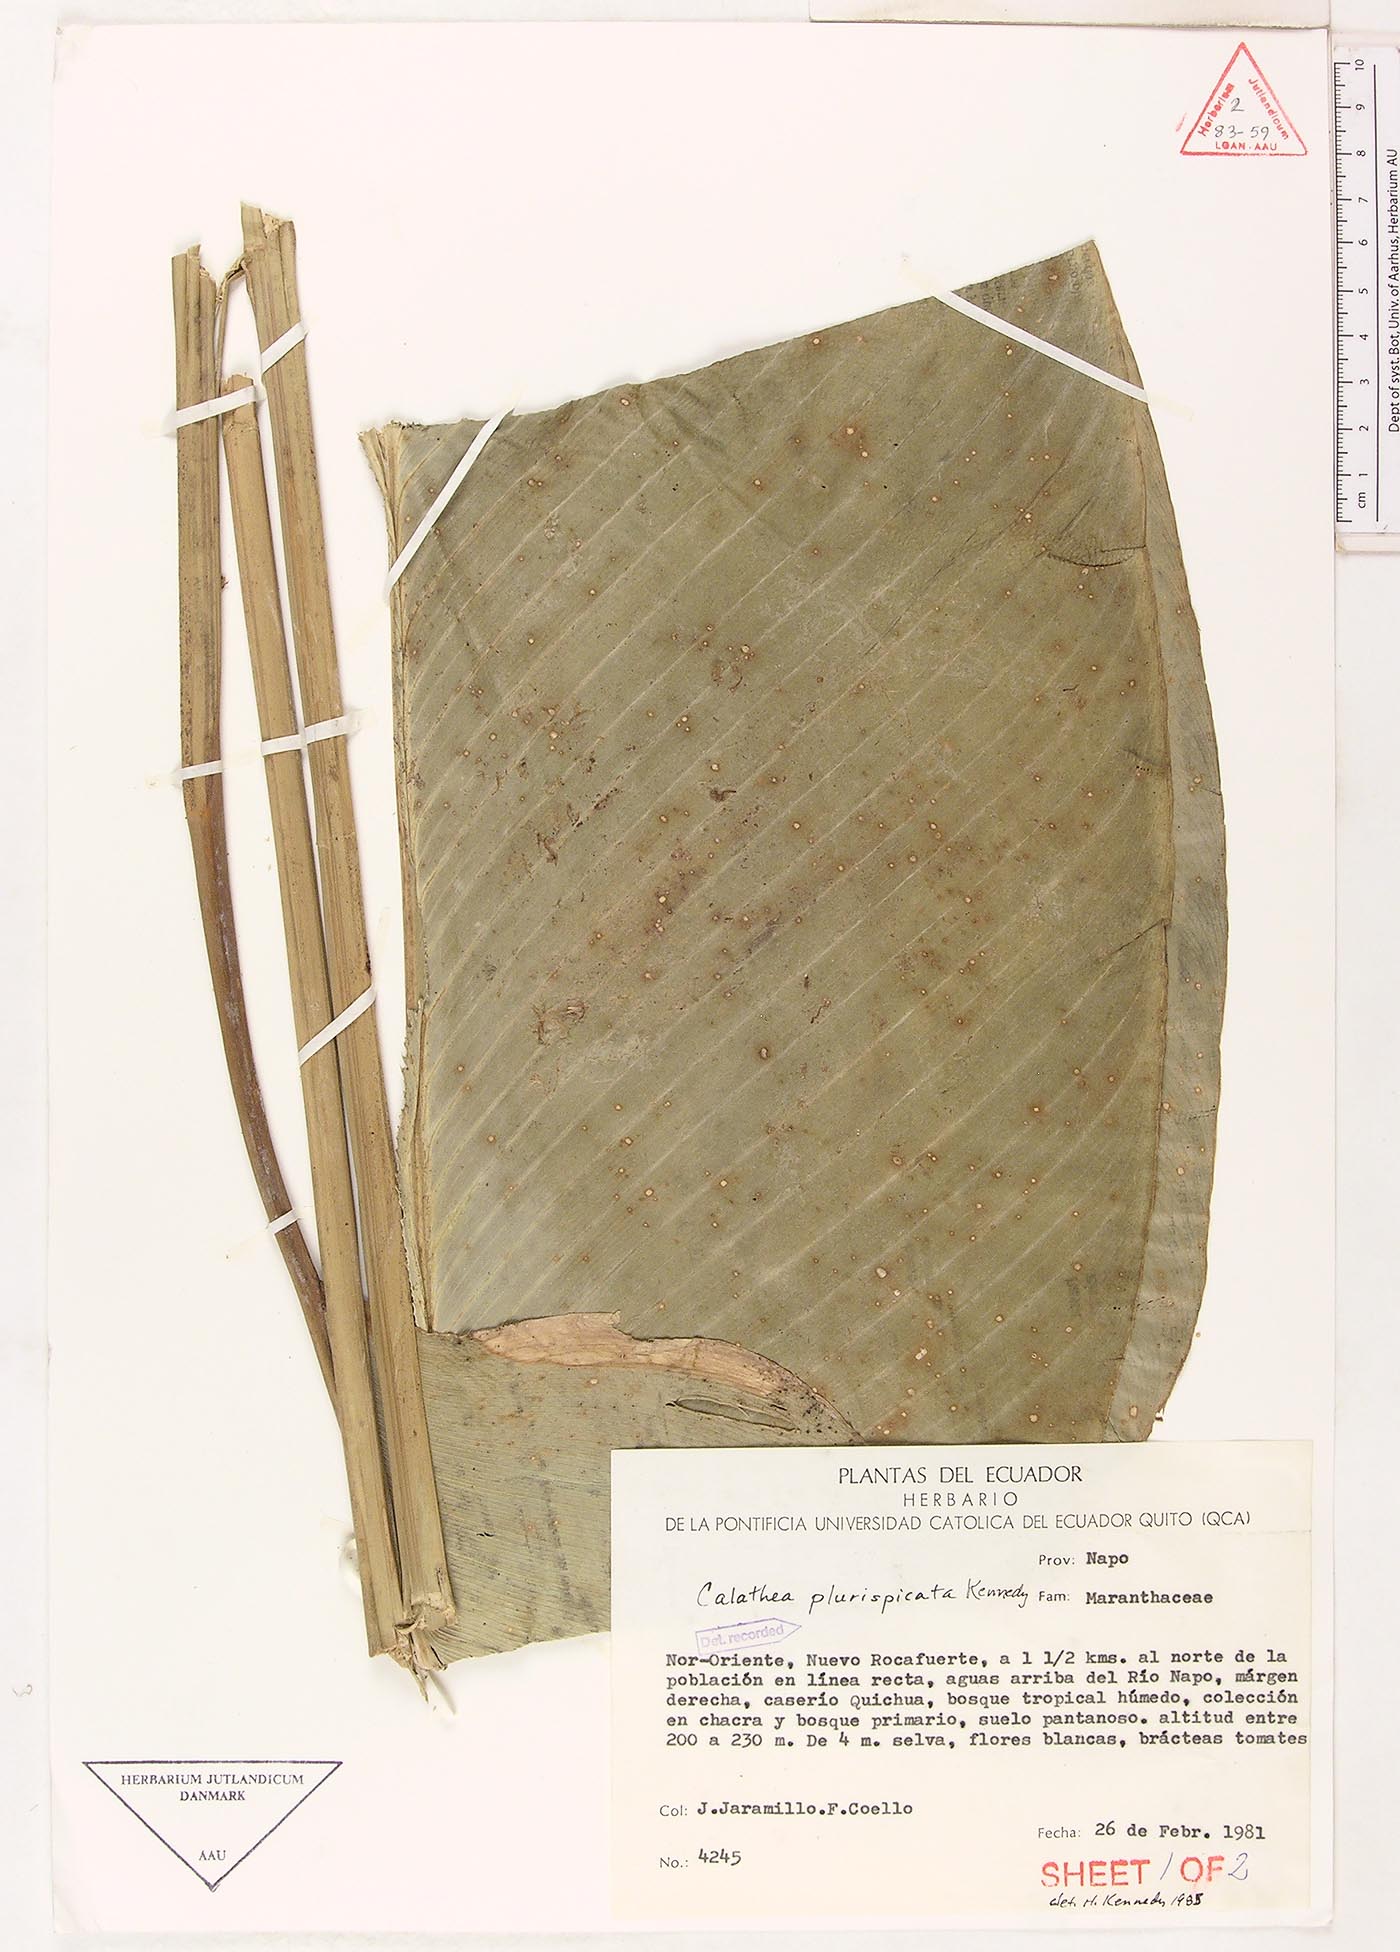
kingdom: Plantae
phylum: Tracheophyta
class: Liliopsida
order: Zingiberales
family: Marantaceae
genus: Calathea
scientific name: Calathea plurispicata
